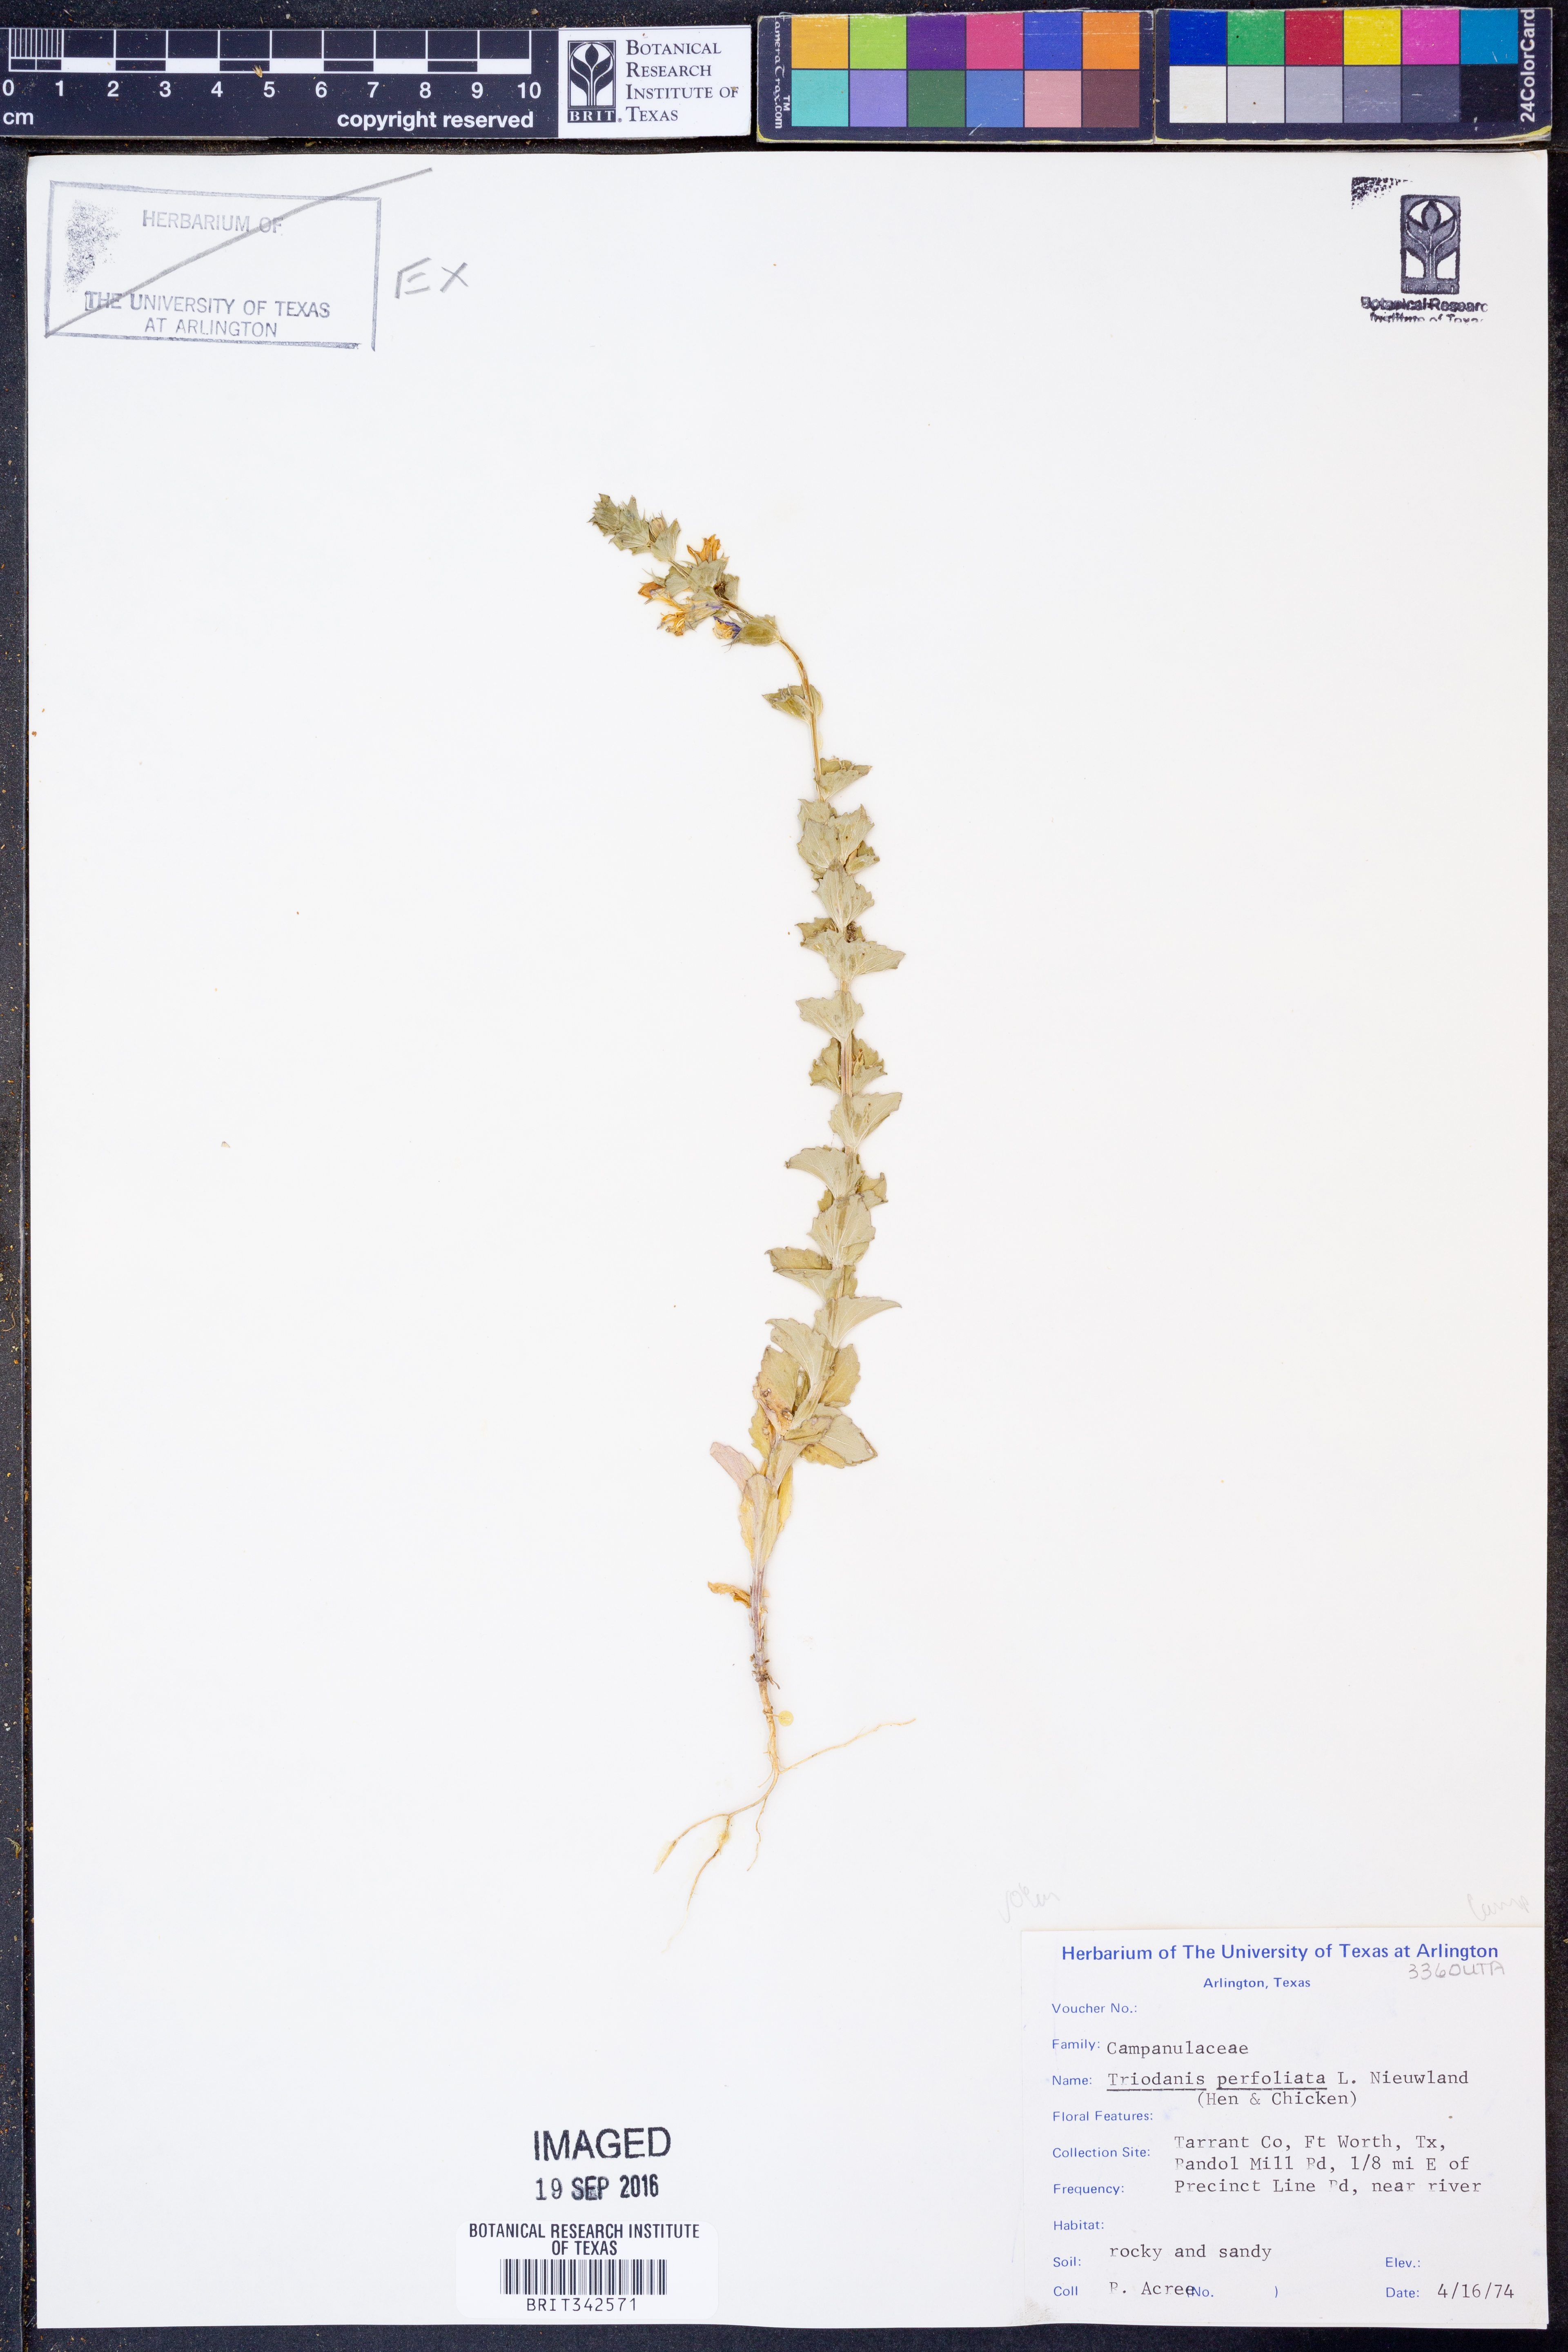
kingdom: Plantae
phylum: Tracheophyta
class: Magnoliopsida
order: Asterales
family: Campanulaceae
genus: Triodanis
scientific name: Triodanis perfoliata
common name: Clasping venus' looking-glass
